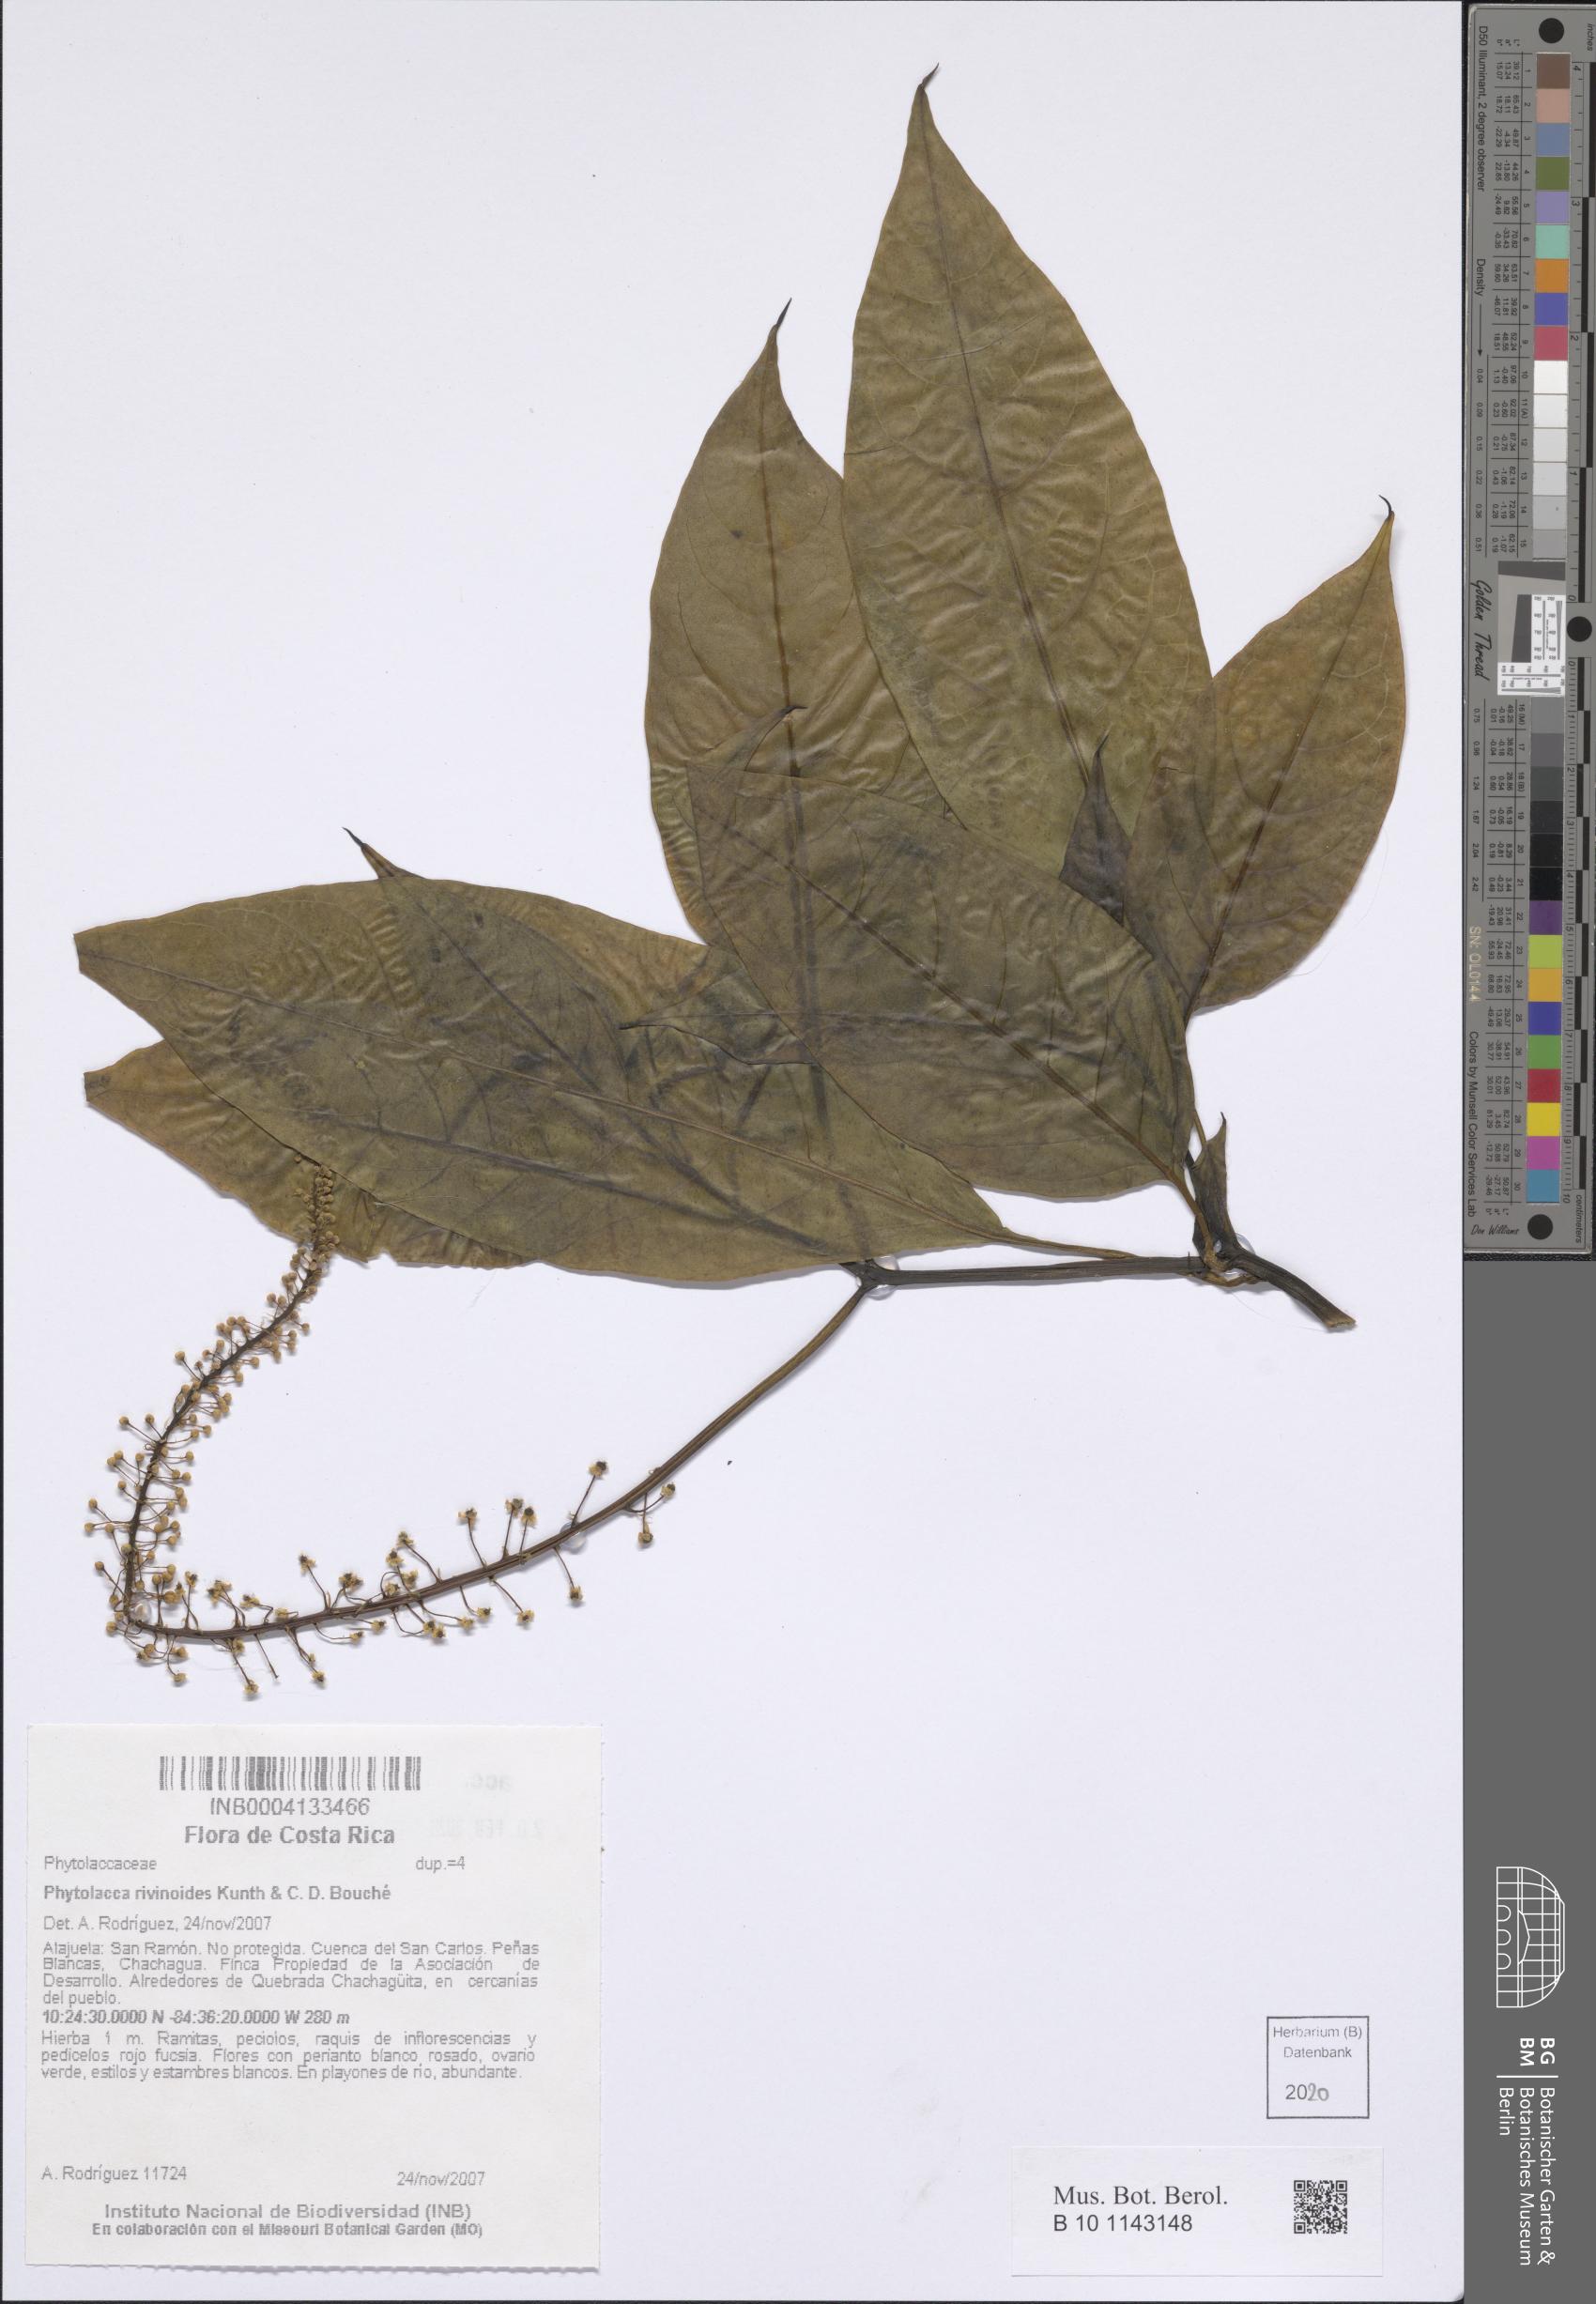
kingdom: Plantae
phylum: Tracheophyta
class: Magnoliopsida
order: Caryophyllales
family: Phytolaccaceae
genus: Phytolacca
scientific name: Phytolacca rivinoides
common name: Venezuelan pokeweed
